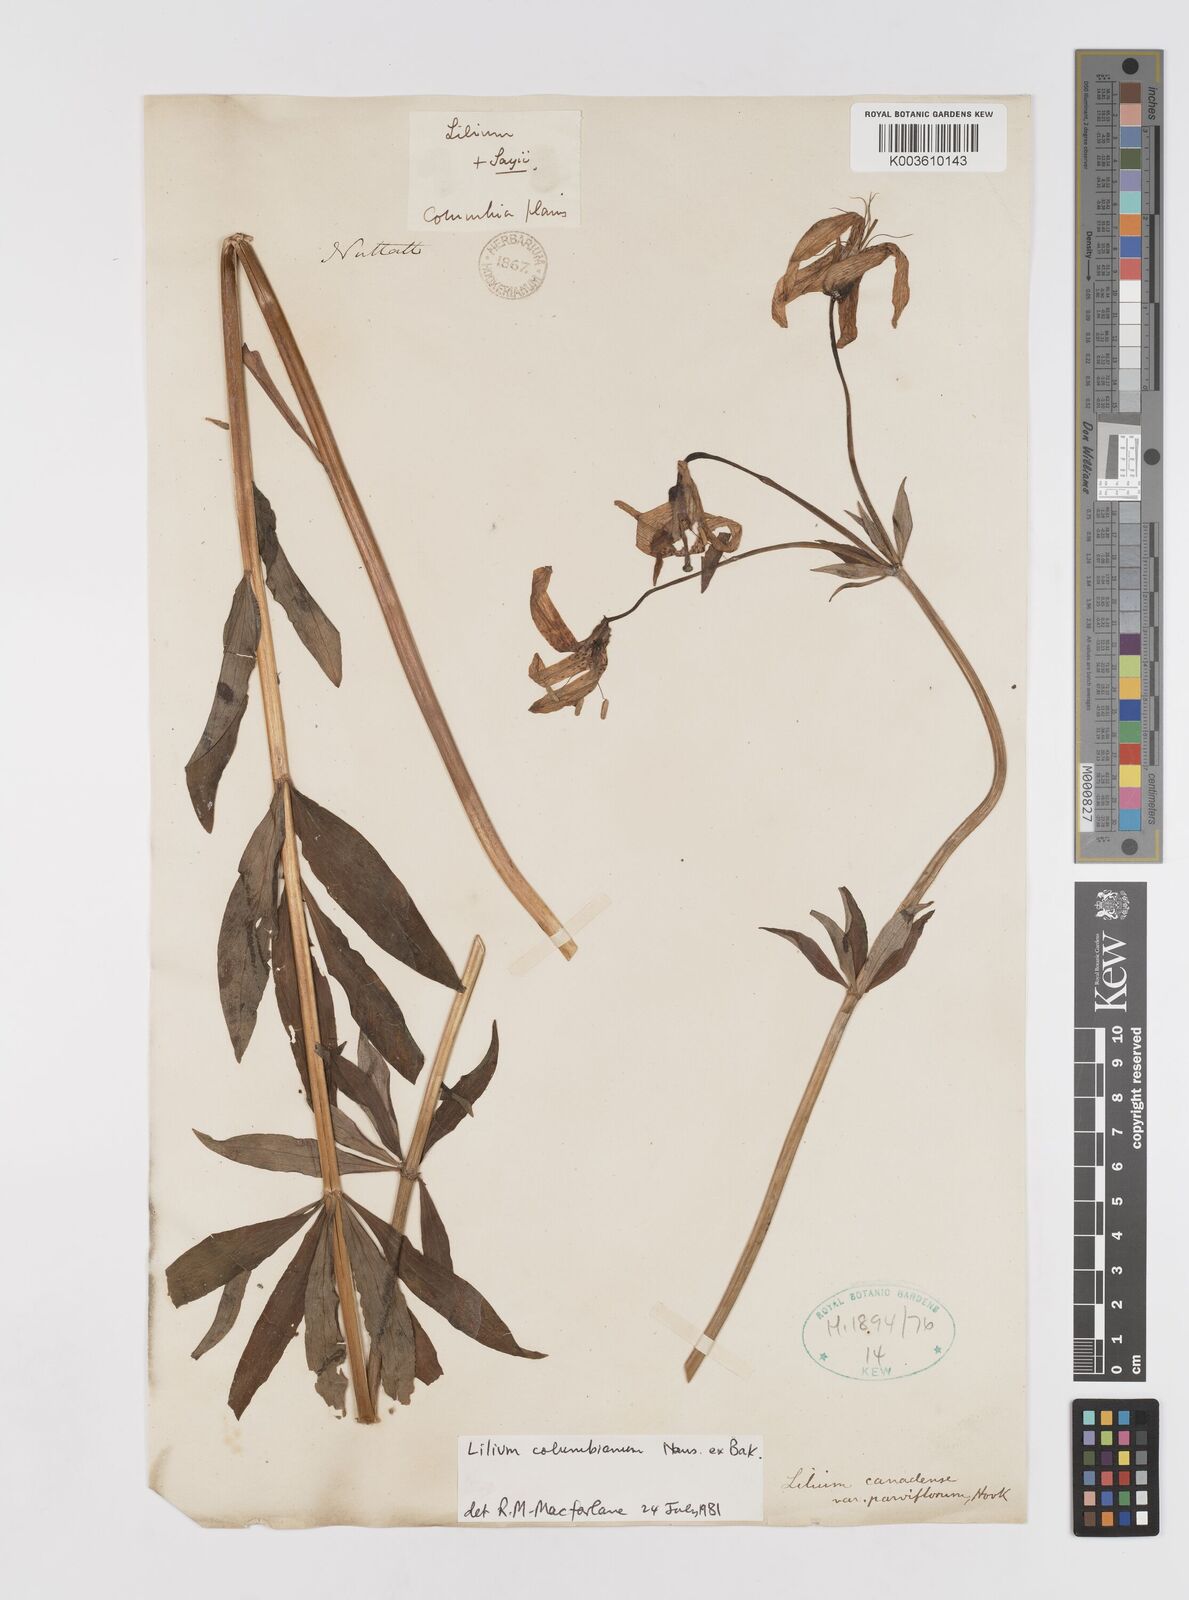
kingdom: Plantae
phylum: Tracheophyta
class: Liliopsida
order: Liliales
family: Liliaceae
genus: Lilium
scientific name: Lilium columbianum
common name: Columbia lily
